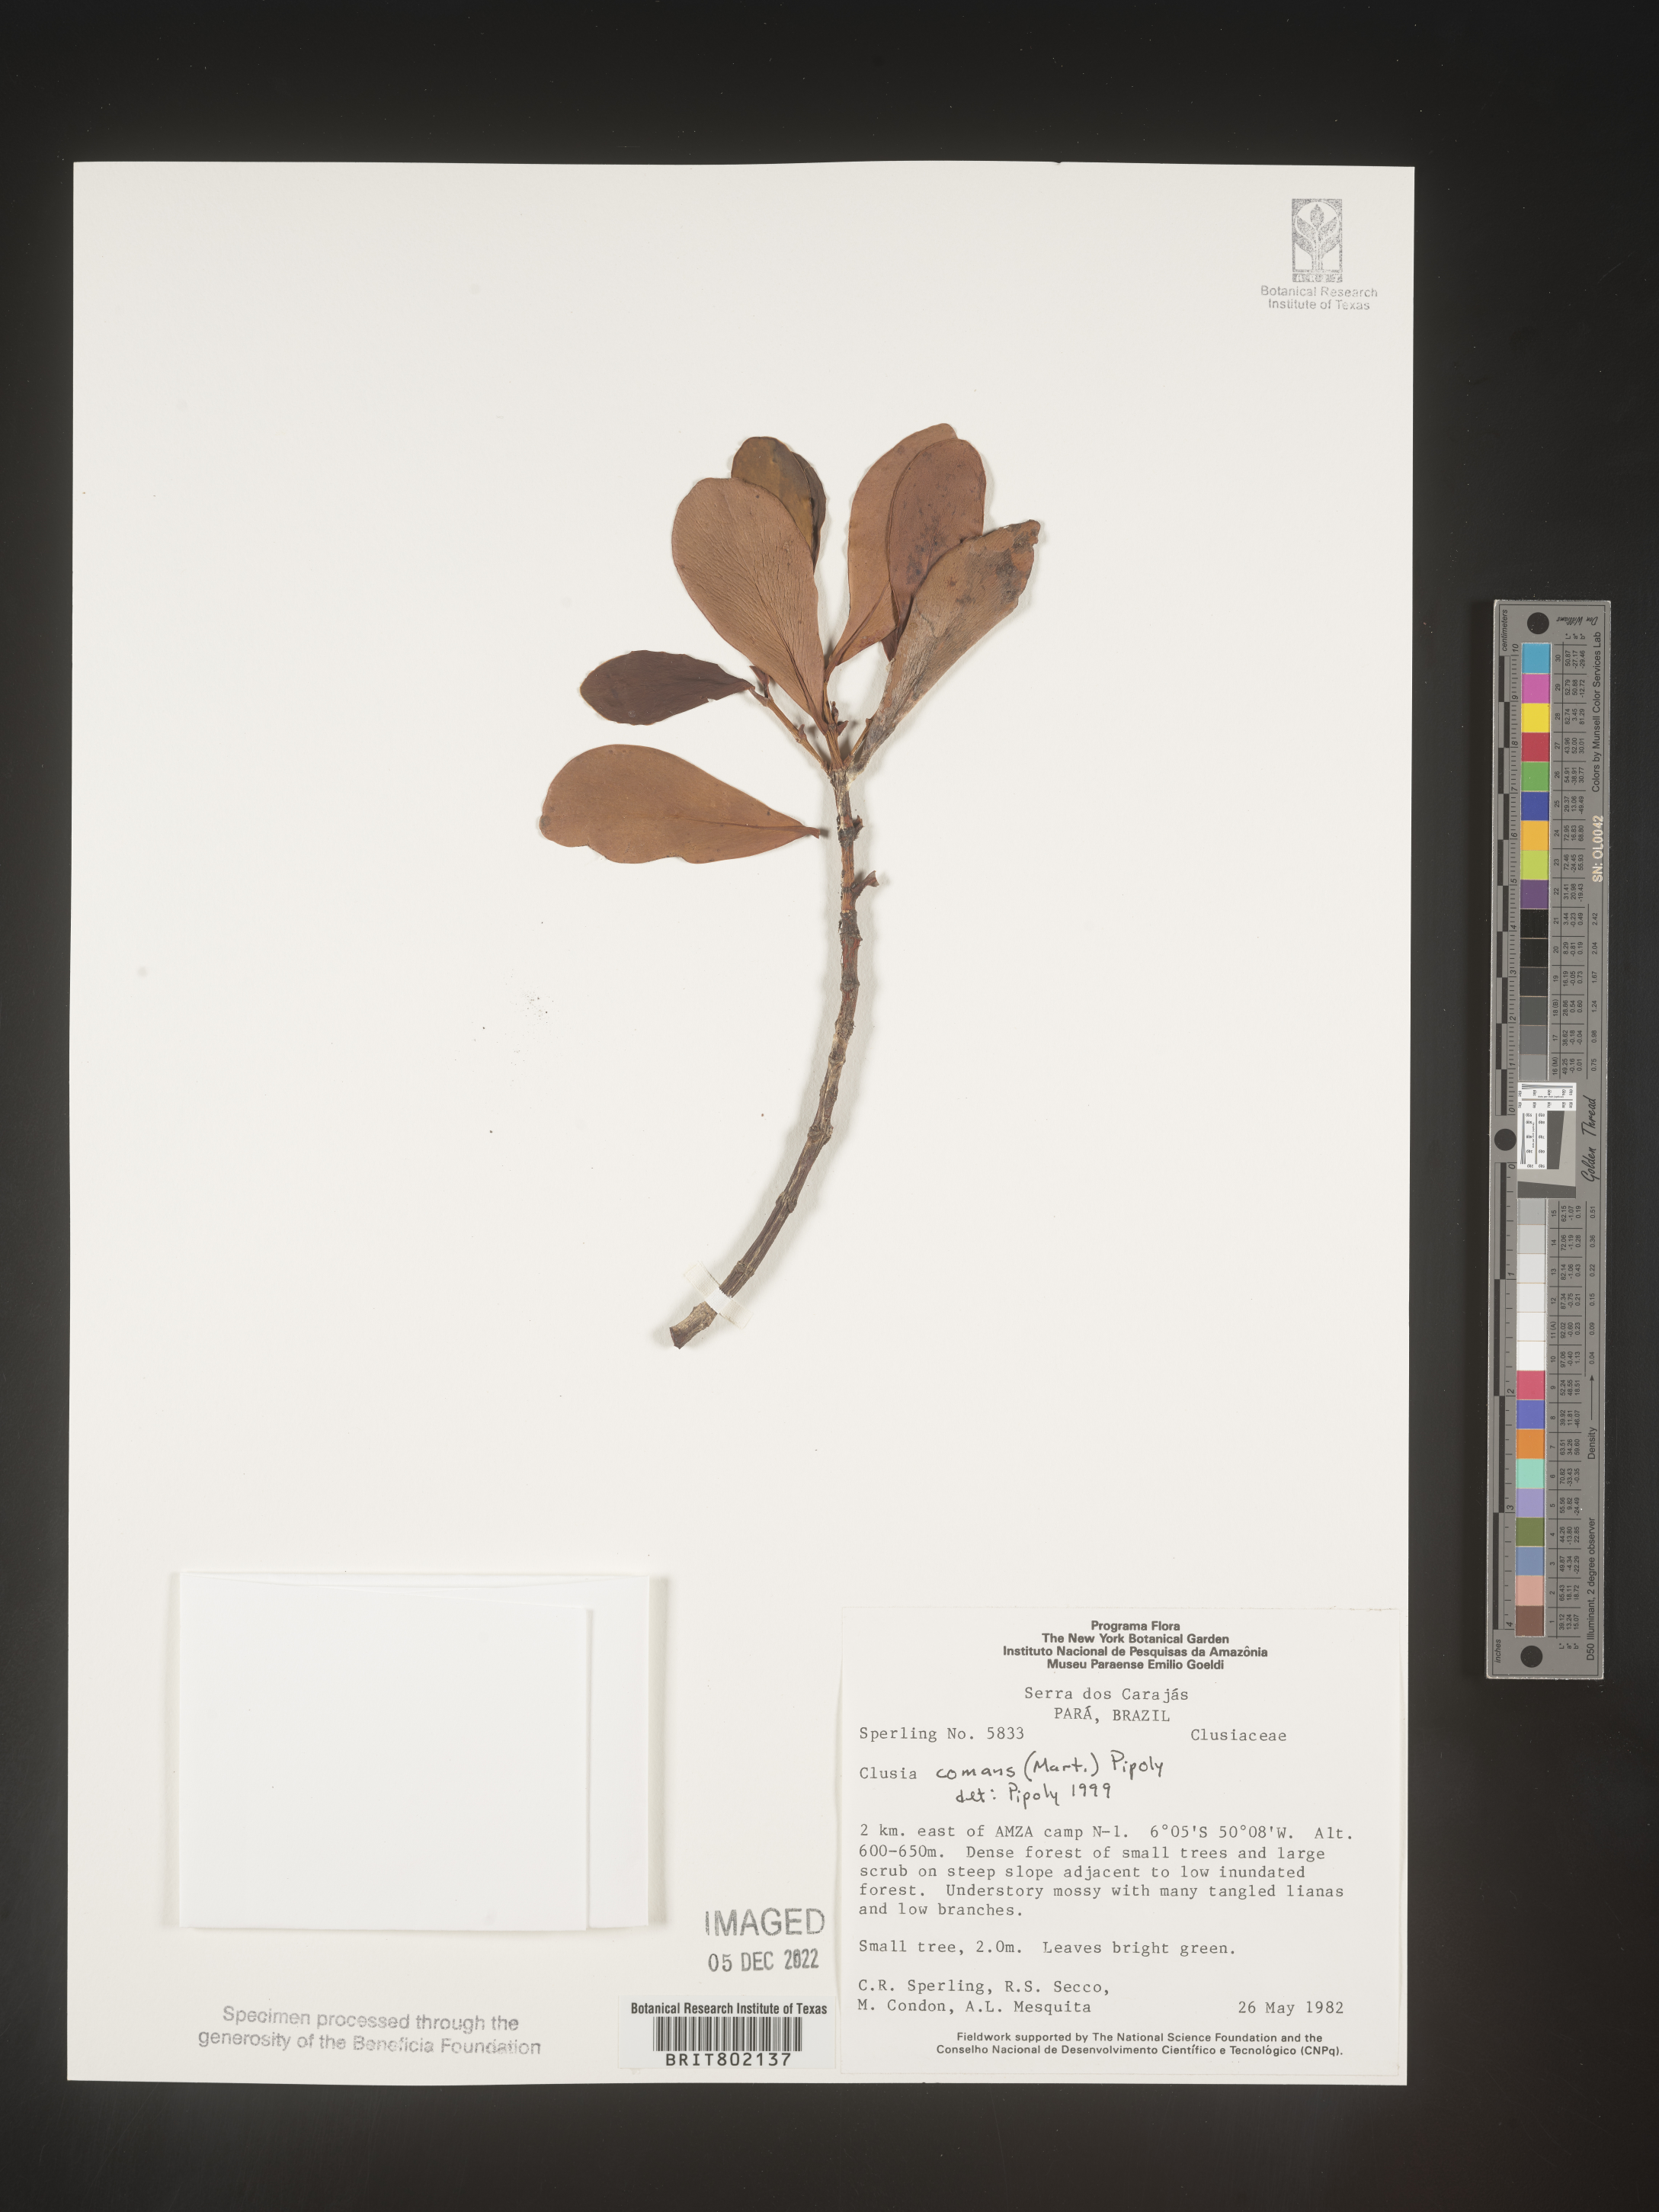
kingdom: Plantae
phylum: Tracheophyta
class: Magnoliopsida
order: Malpighiales
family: Clusiaceae
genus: Clusia
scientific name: Clusia
